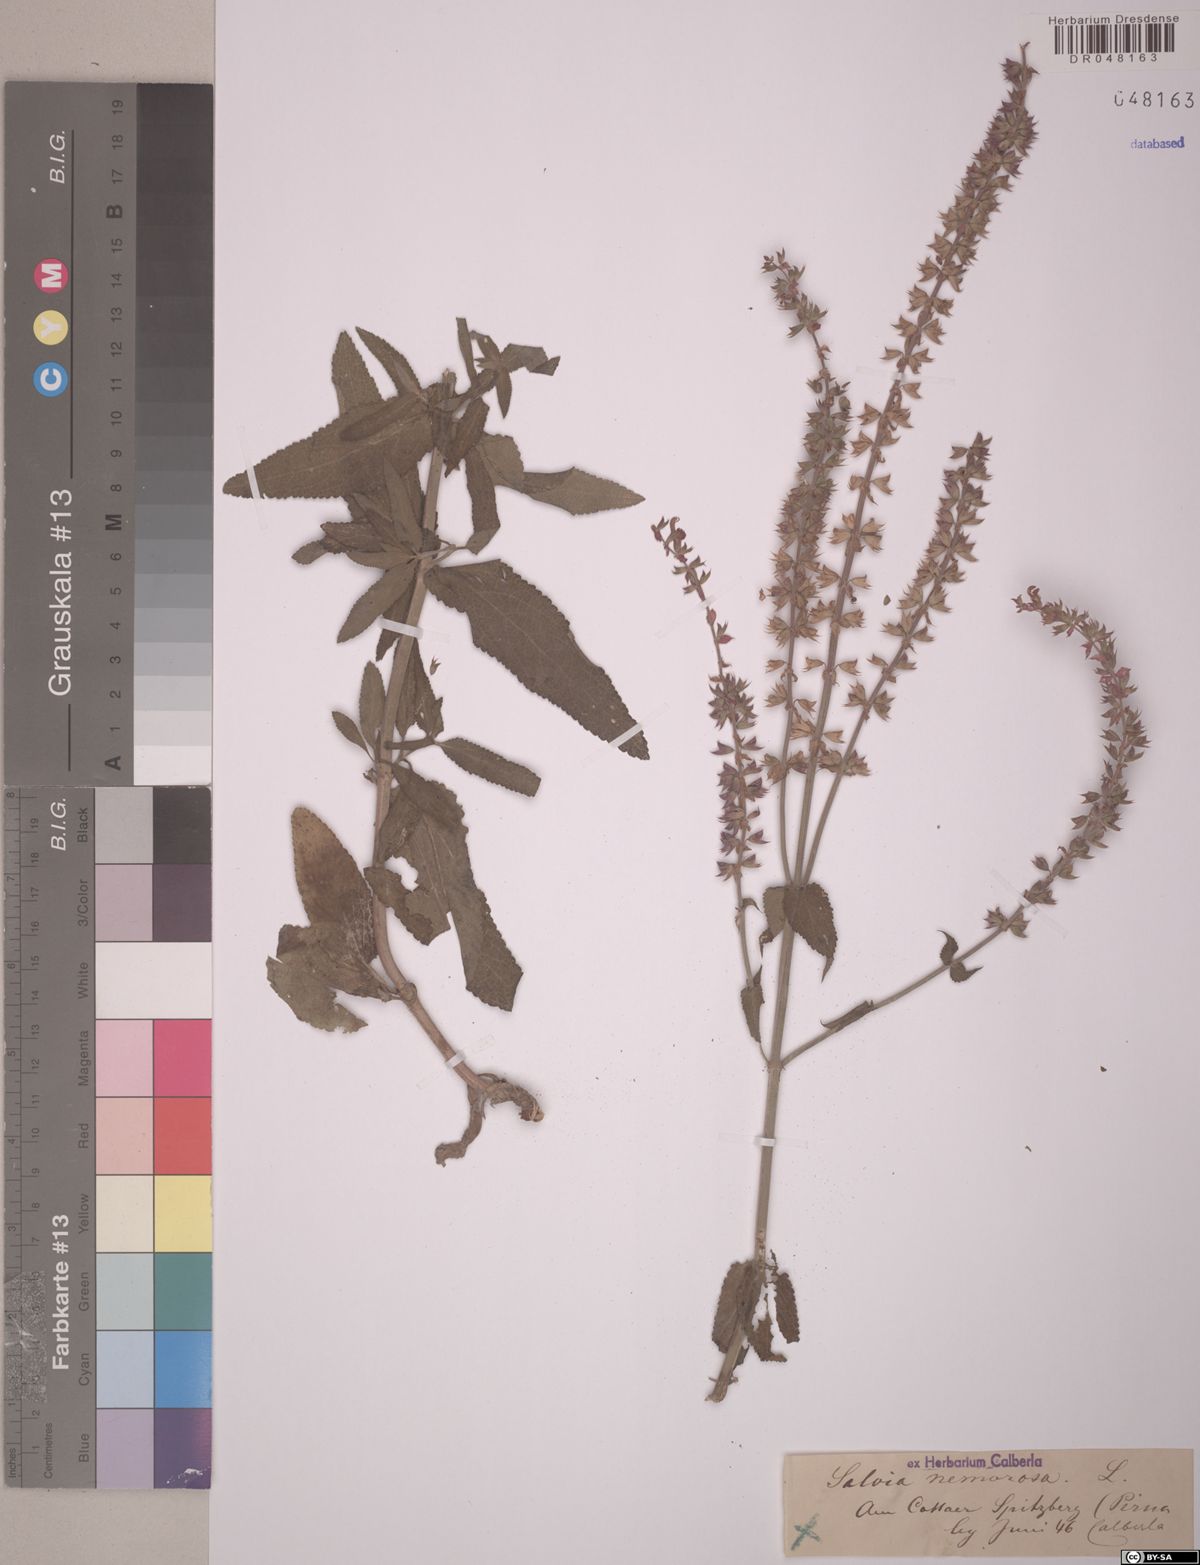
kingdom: Plantae
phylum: Tracheophyta
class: Magnoliopsida
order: Lamiales
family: Lamiaceae
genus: Salvia
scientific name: Salvia nemorosa
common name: Balkan clary
